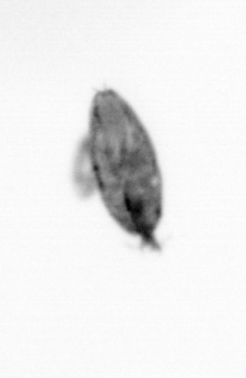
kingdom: Animalia
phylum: Arthropoda
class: Maxillopoda
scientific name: Maxillopoda
